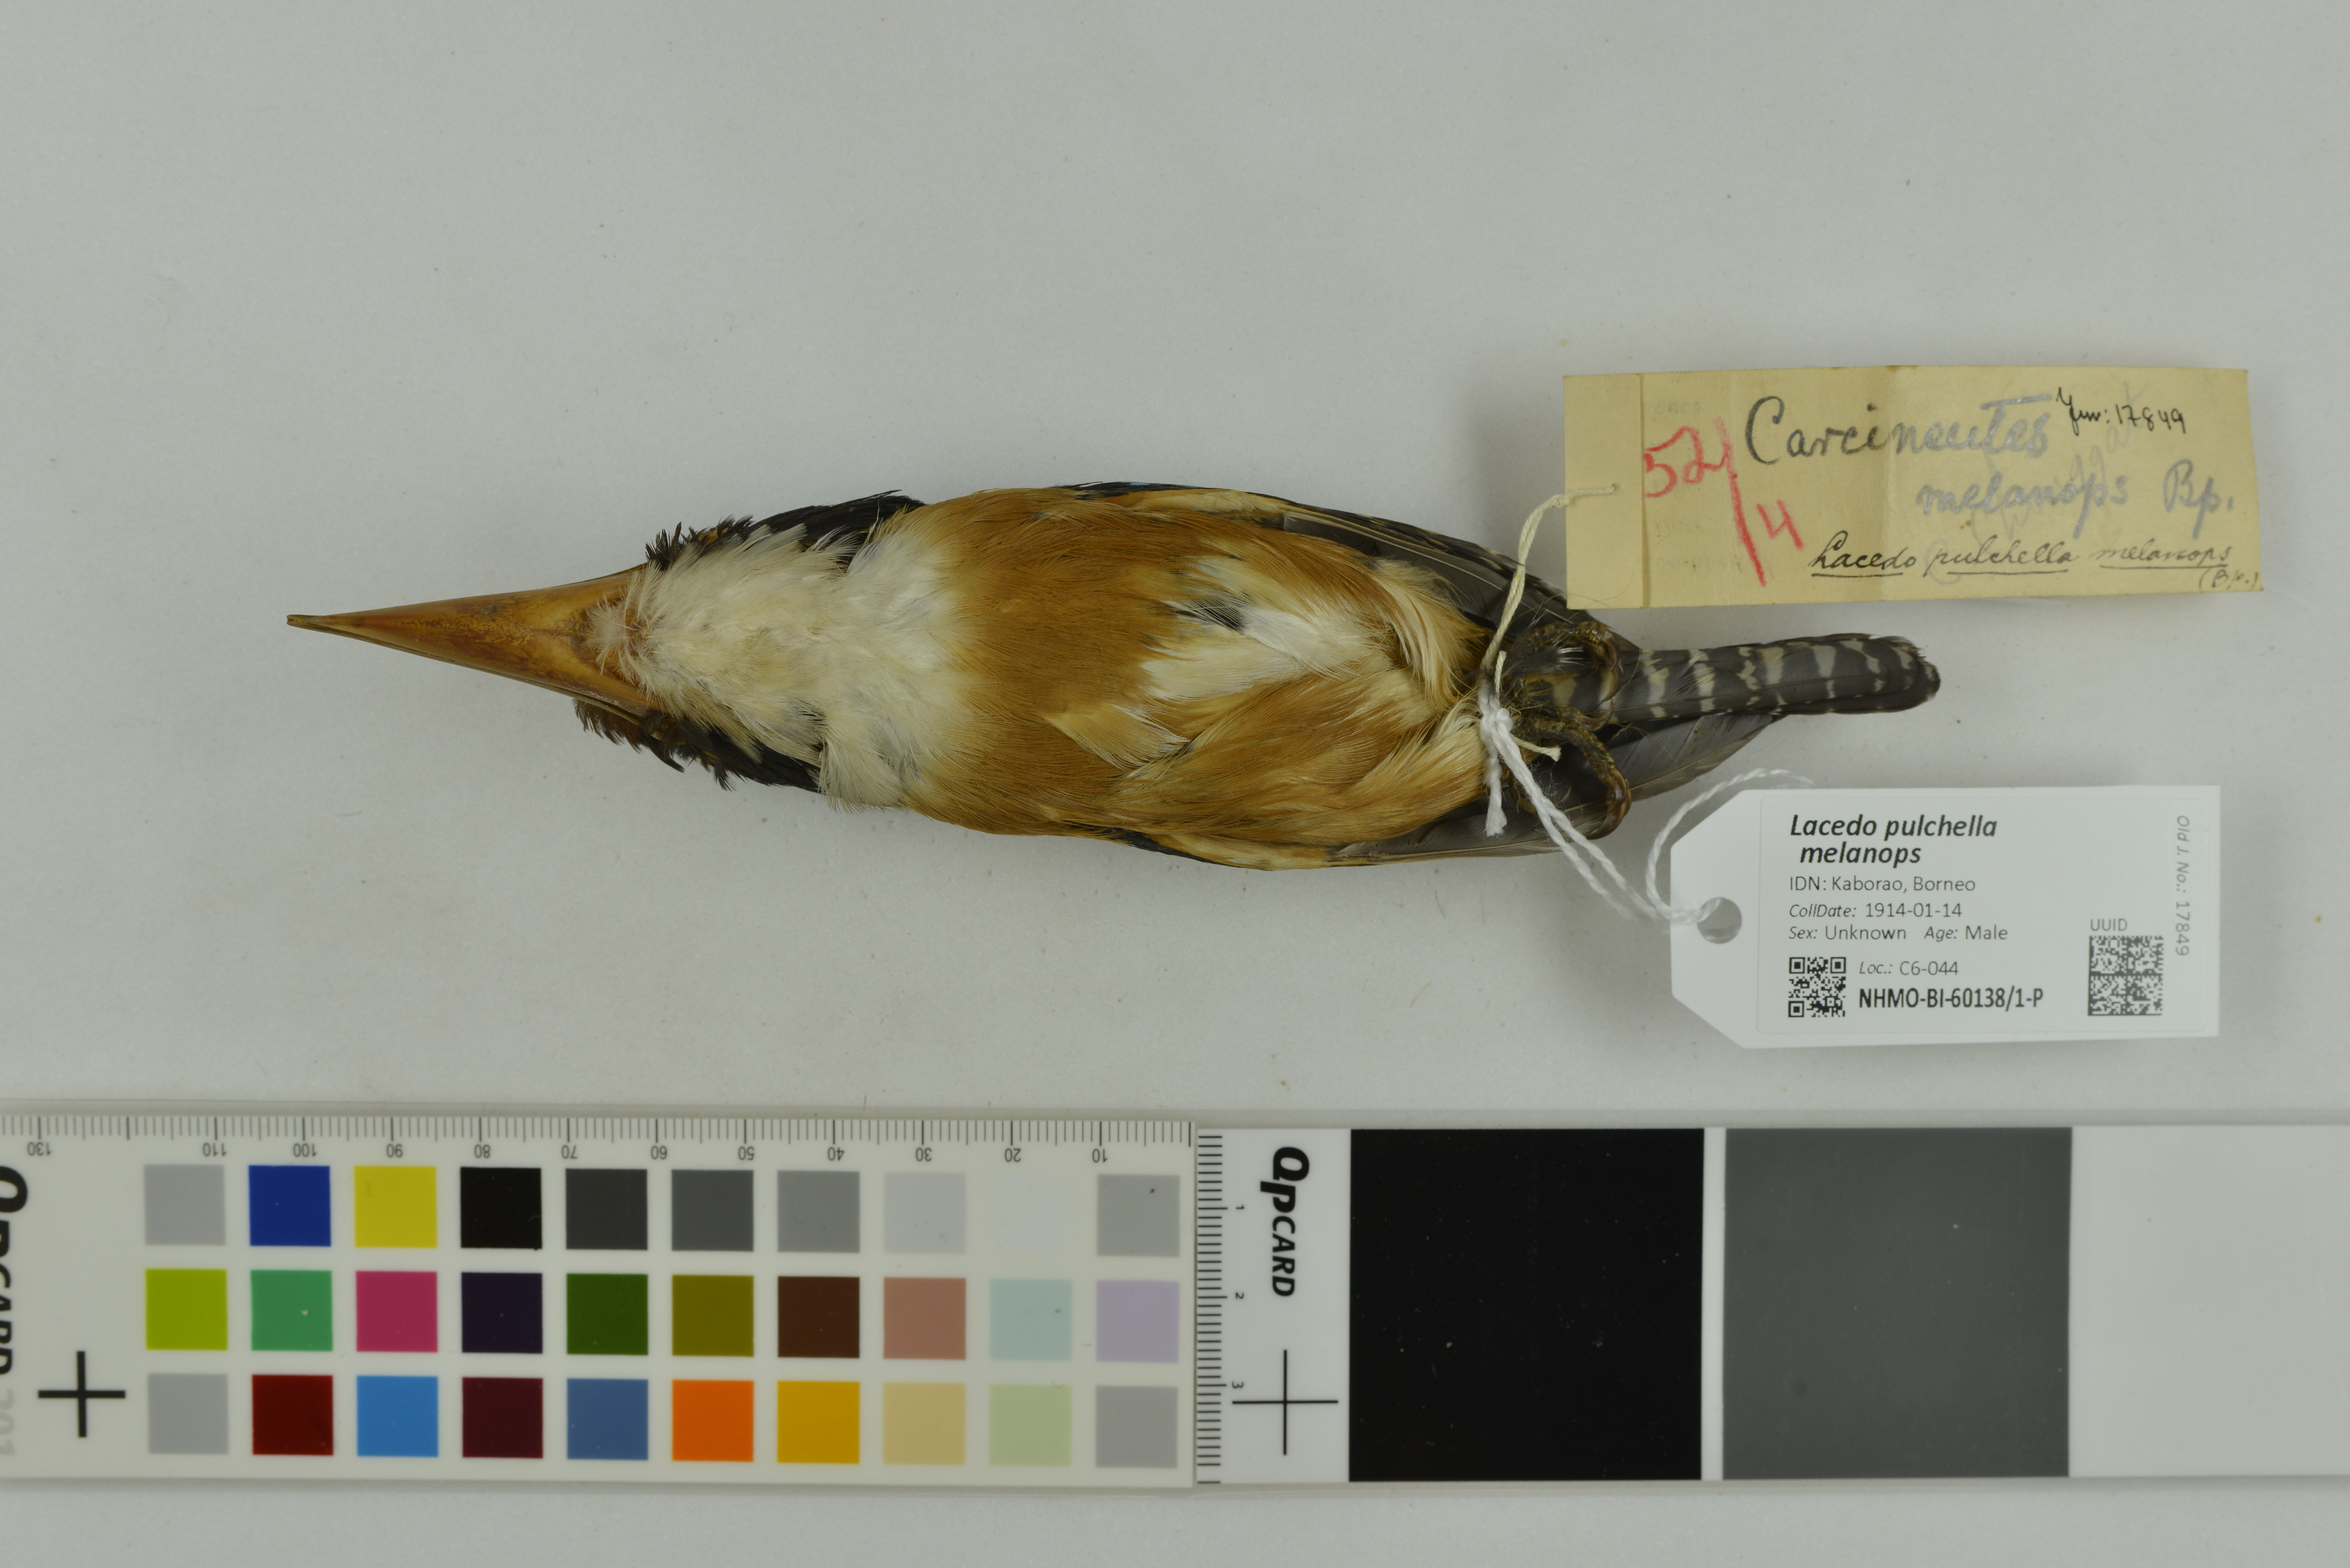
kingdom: Animalia
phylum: Chordata
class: Aves
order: Coraciiformes
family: Alcedinidae
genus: Lacedo
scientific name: Lacedo pulchella
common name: Banded kingfisher
